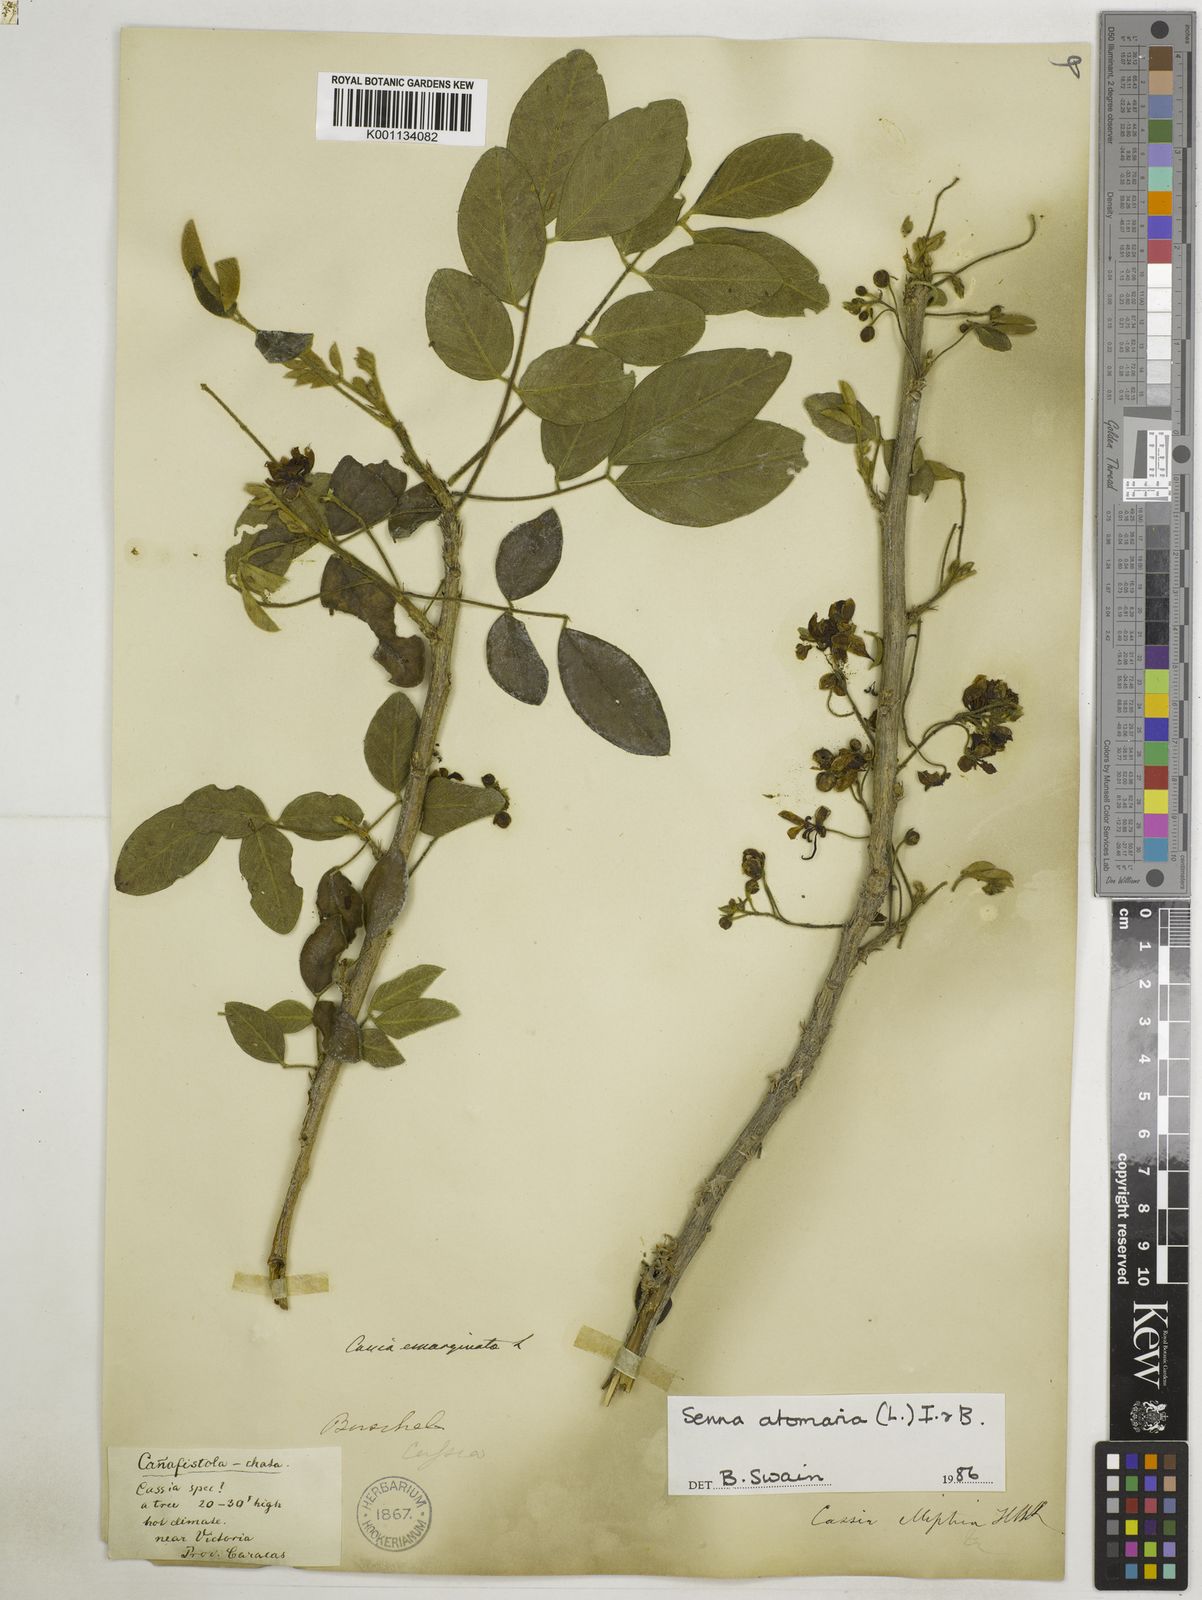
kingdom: Plantae
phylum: Tracheophyta
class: Magnoliopsida
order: Fabales
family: Fabaceae
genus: Senna
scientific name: Senna atomaria
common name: Flor de san jose
